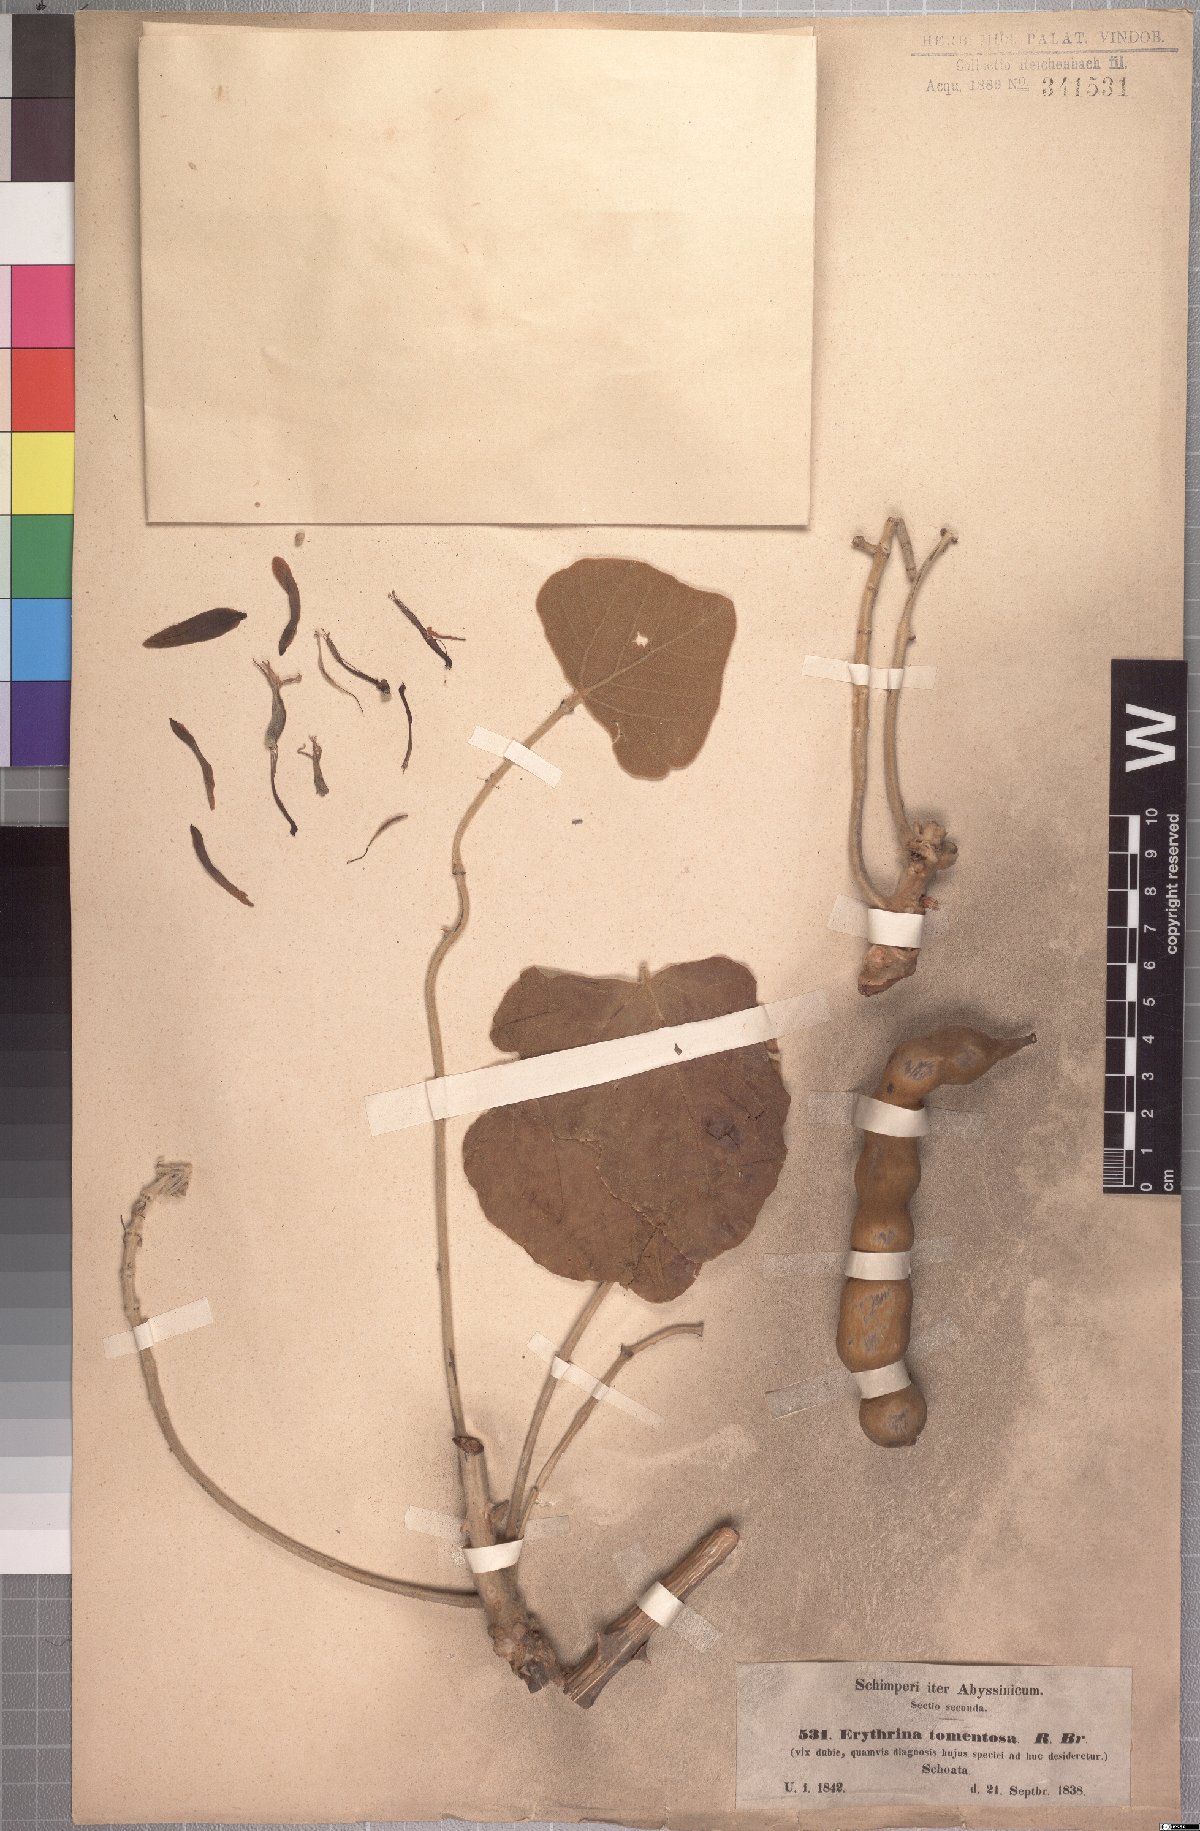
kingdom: Plantae
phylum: Tracheophyta
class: Magnoliopsida
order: Fabales
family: Fabaceae
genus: Erythrina
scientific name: Erythrina abyssinica
